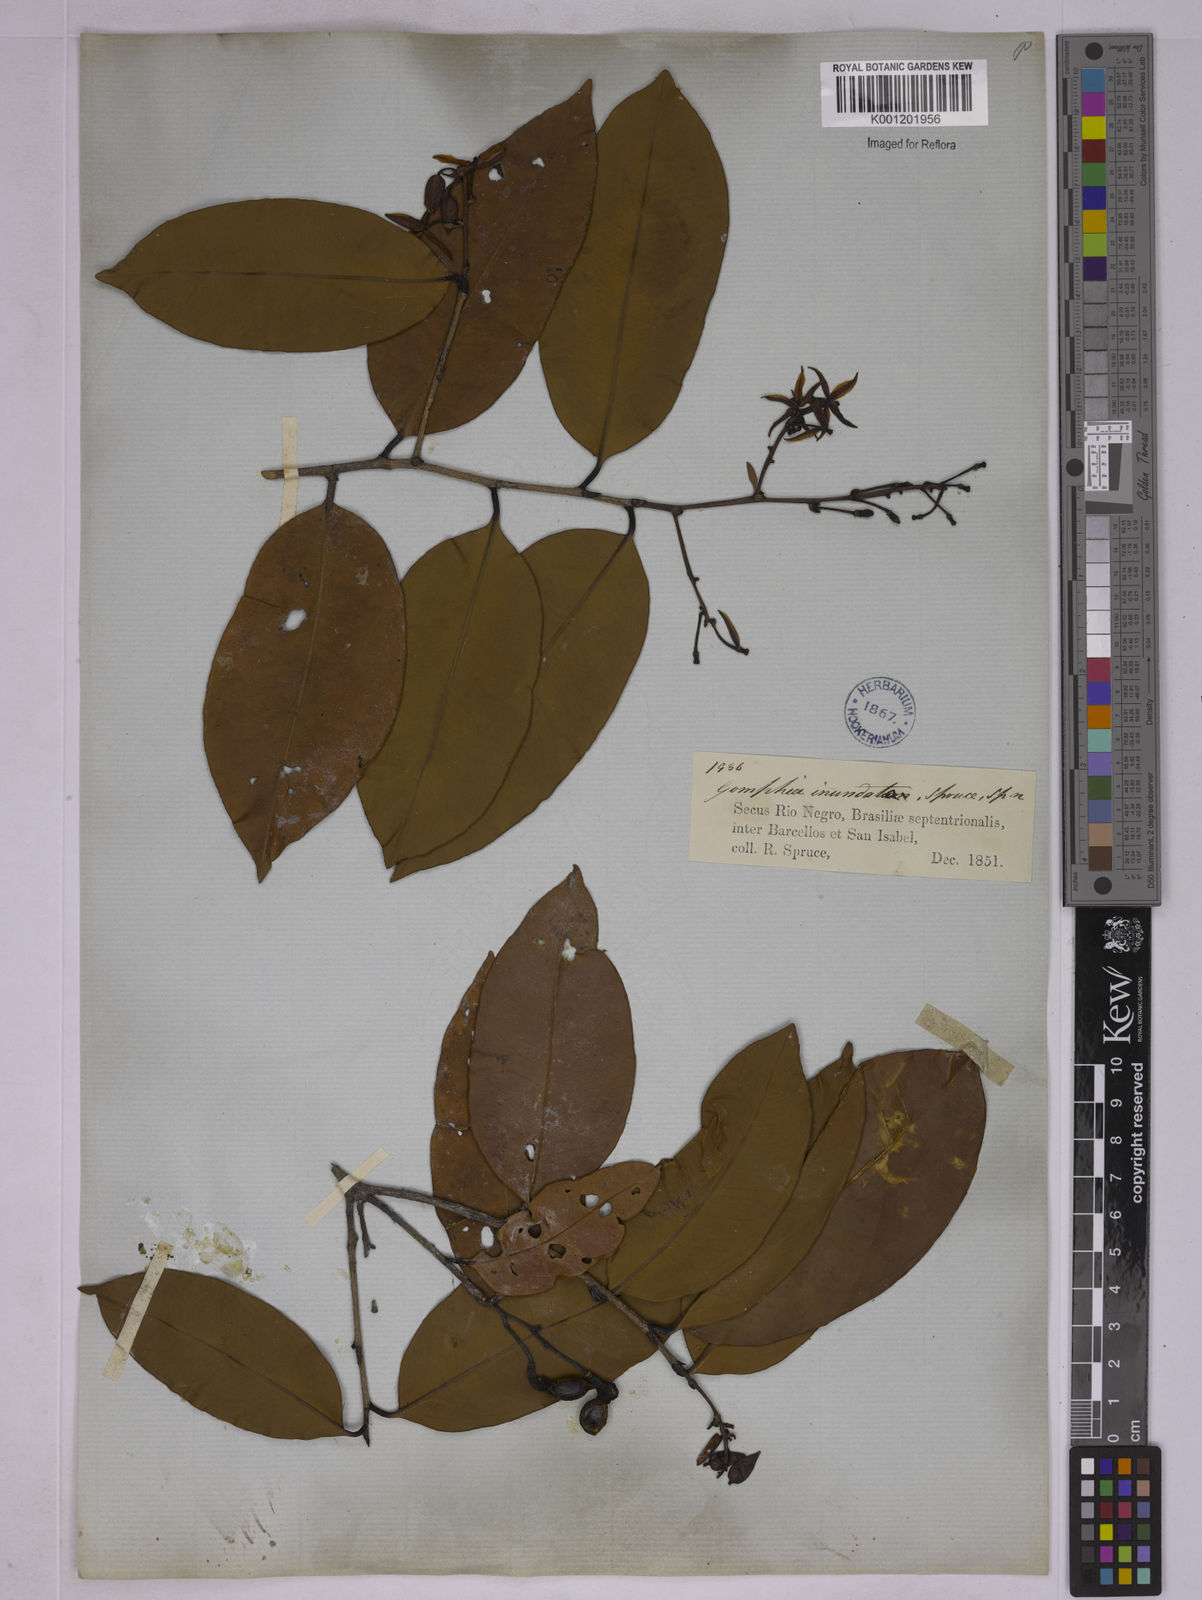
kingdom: Plantae
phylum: Tracheophyta
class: Magnoliopsida
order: Malpighiales
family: Ochnaceae
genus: Ouratea
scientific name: Ouratea inundata
